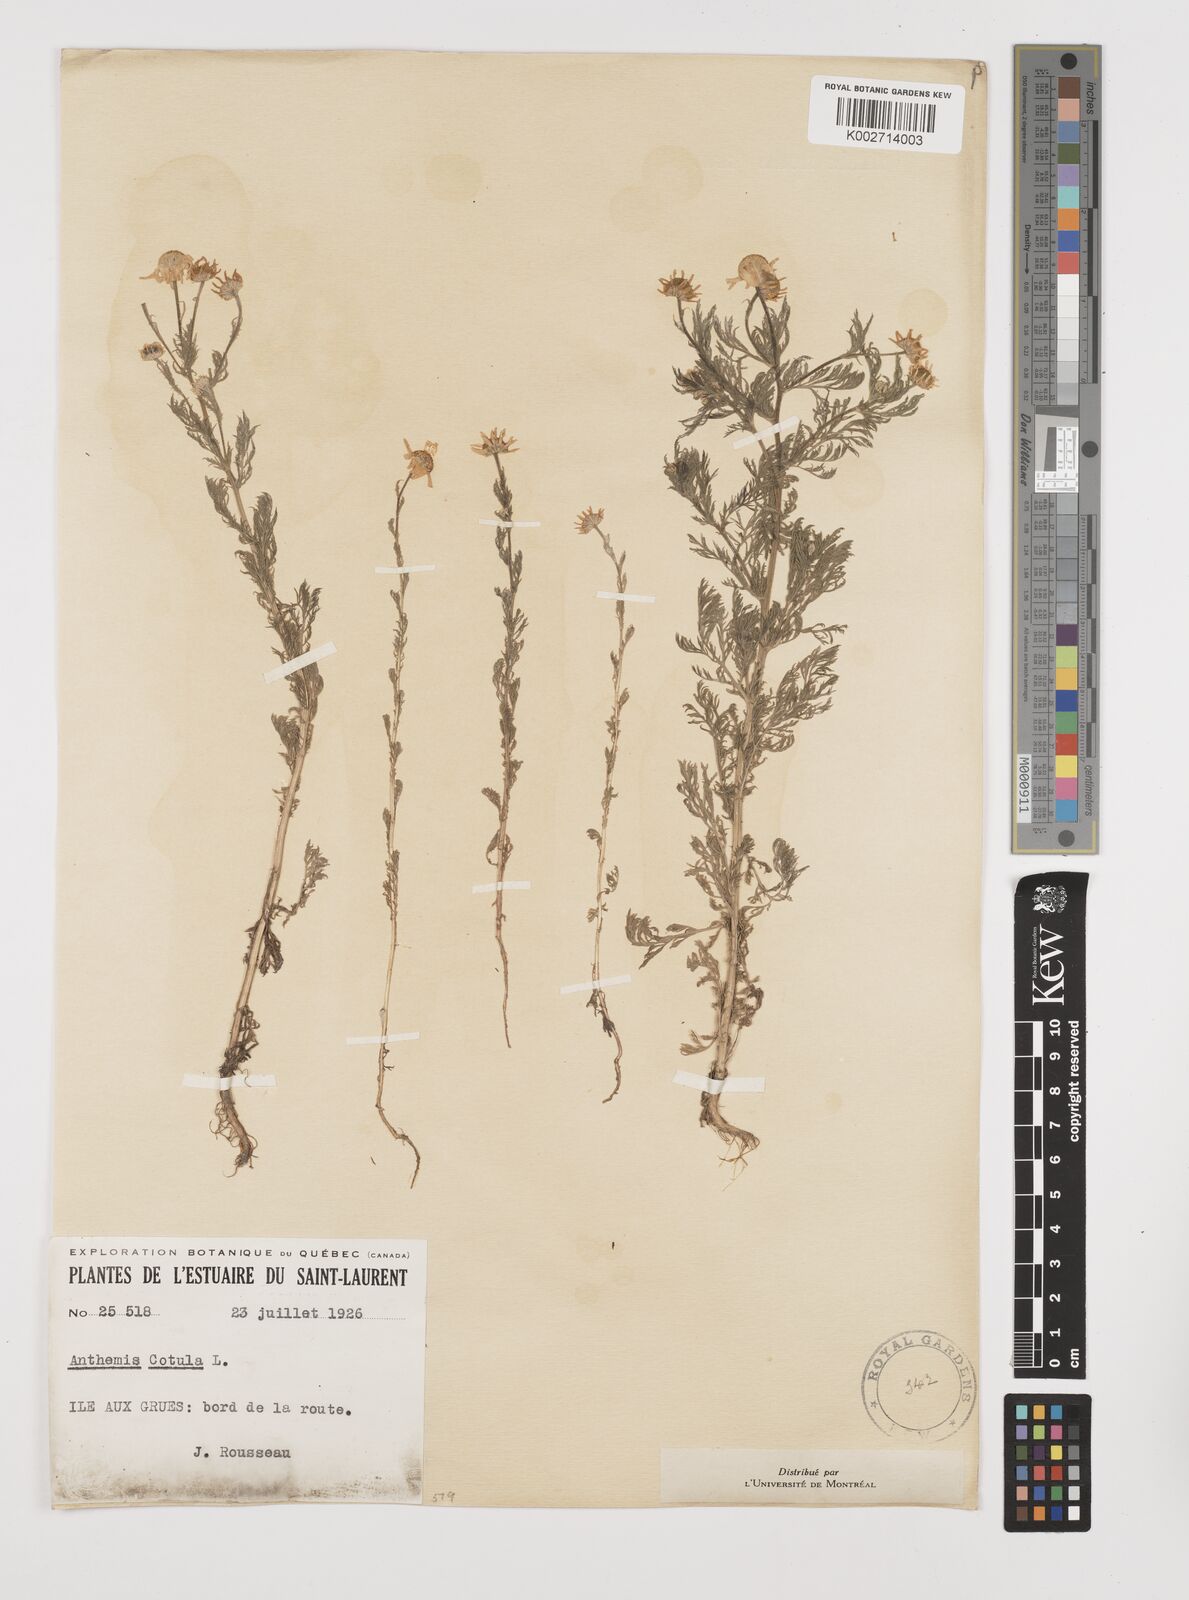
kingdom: Plantae
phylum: Tracheophyta
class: Magnoliopsida
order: Asterales
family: Asteraceae
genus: Anthemis
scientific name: Anthemis cotula
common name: Stinking chamomile
